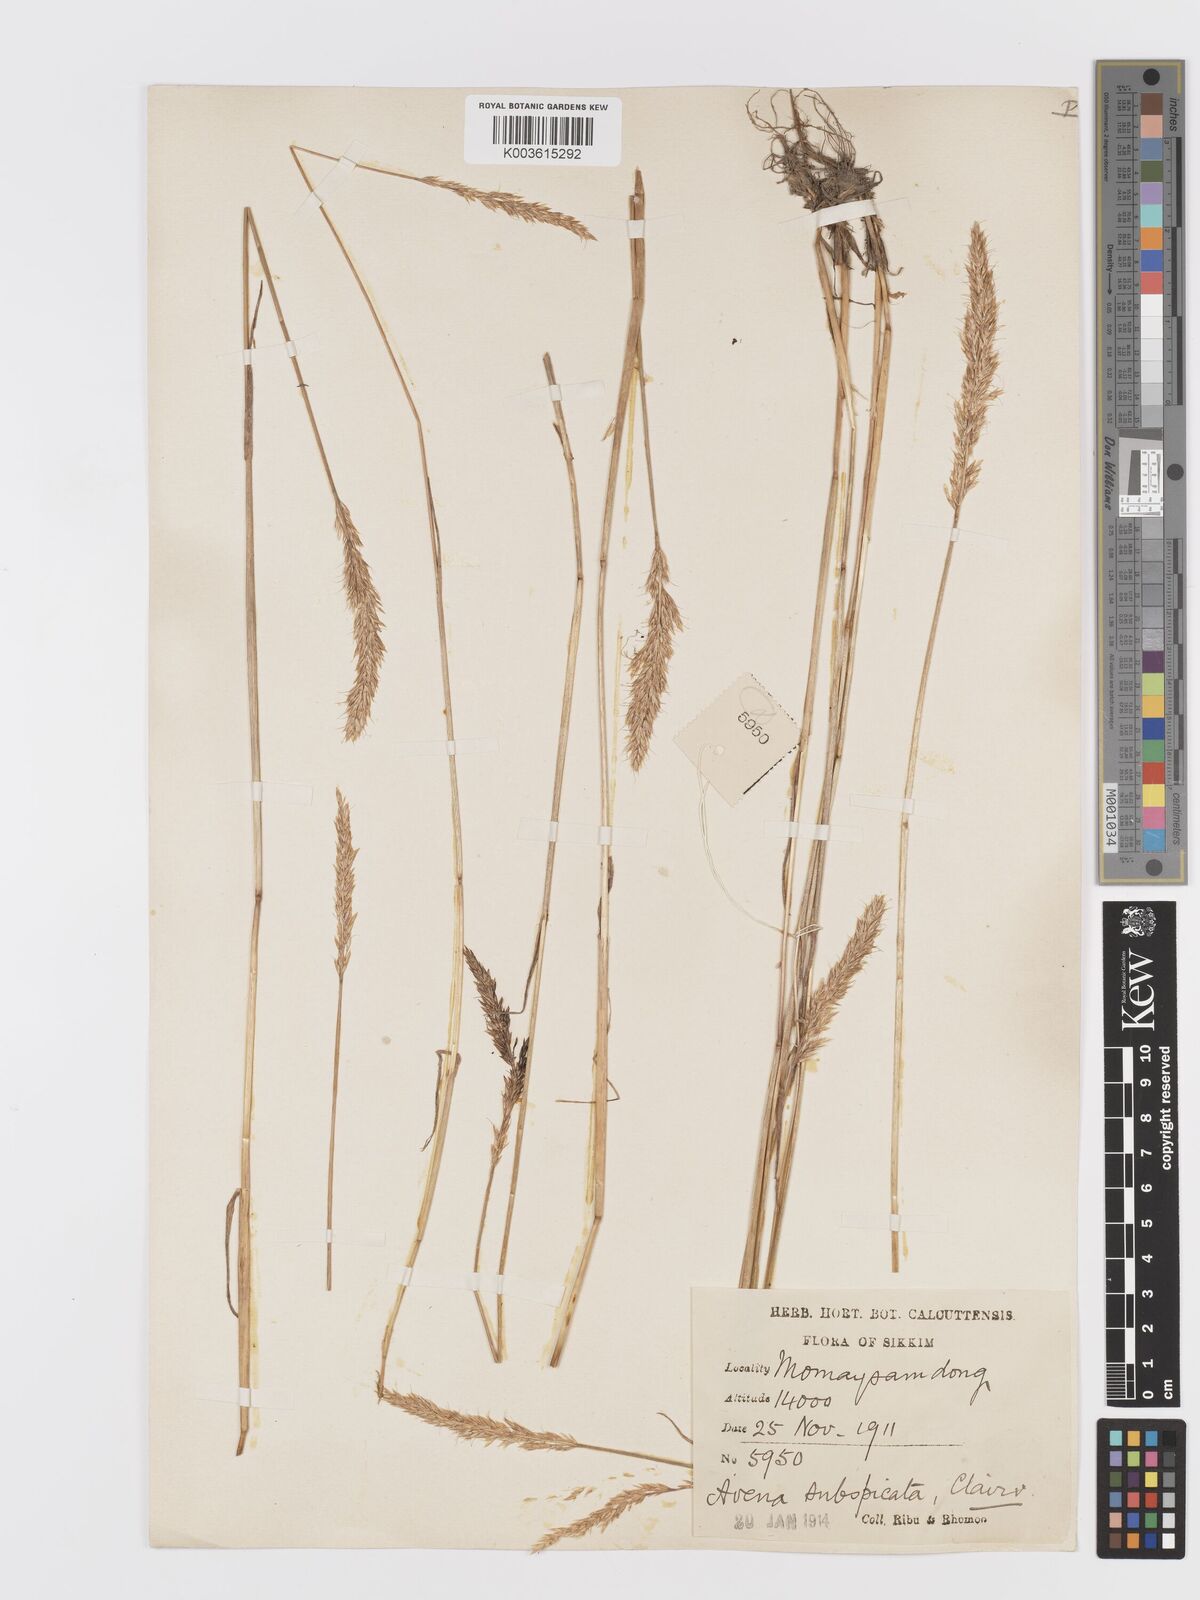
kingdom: Plantae
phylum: Tracheophyta
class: Liliopsida
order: Poales
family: Poaceae
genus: Koeleria
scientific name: Koeleria spicata
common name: Mountain trisetum
